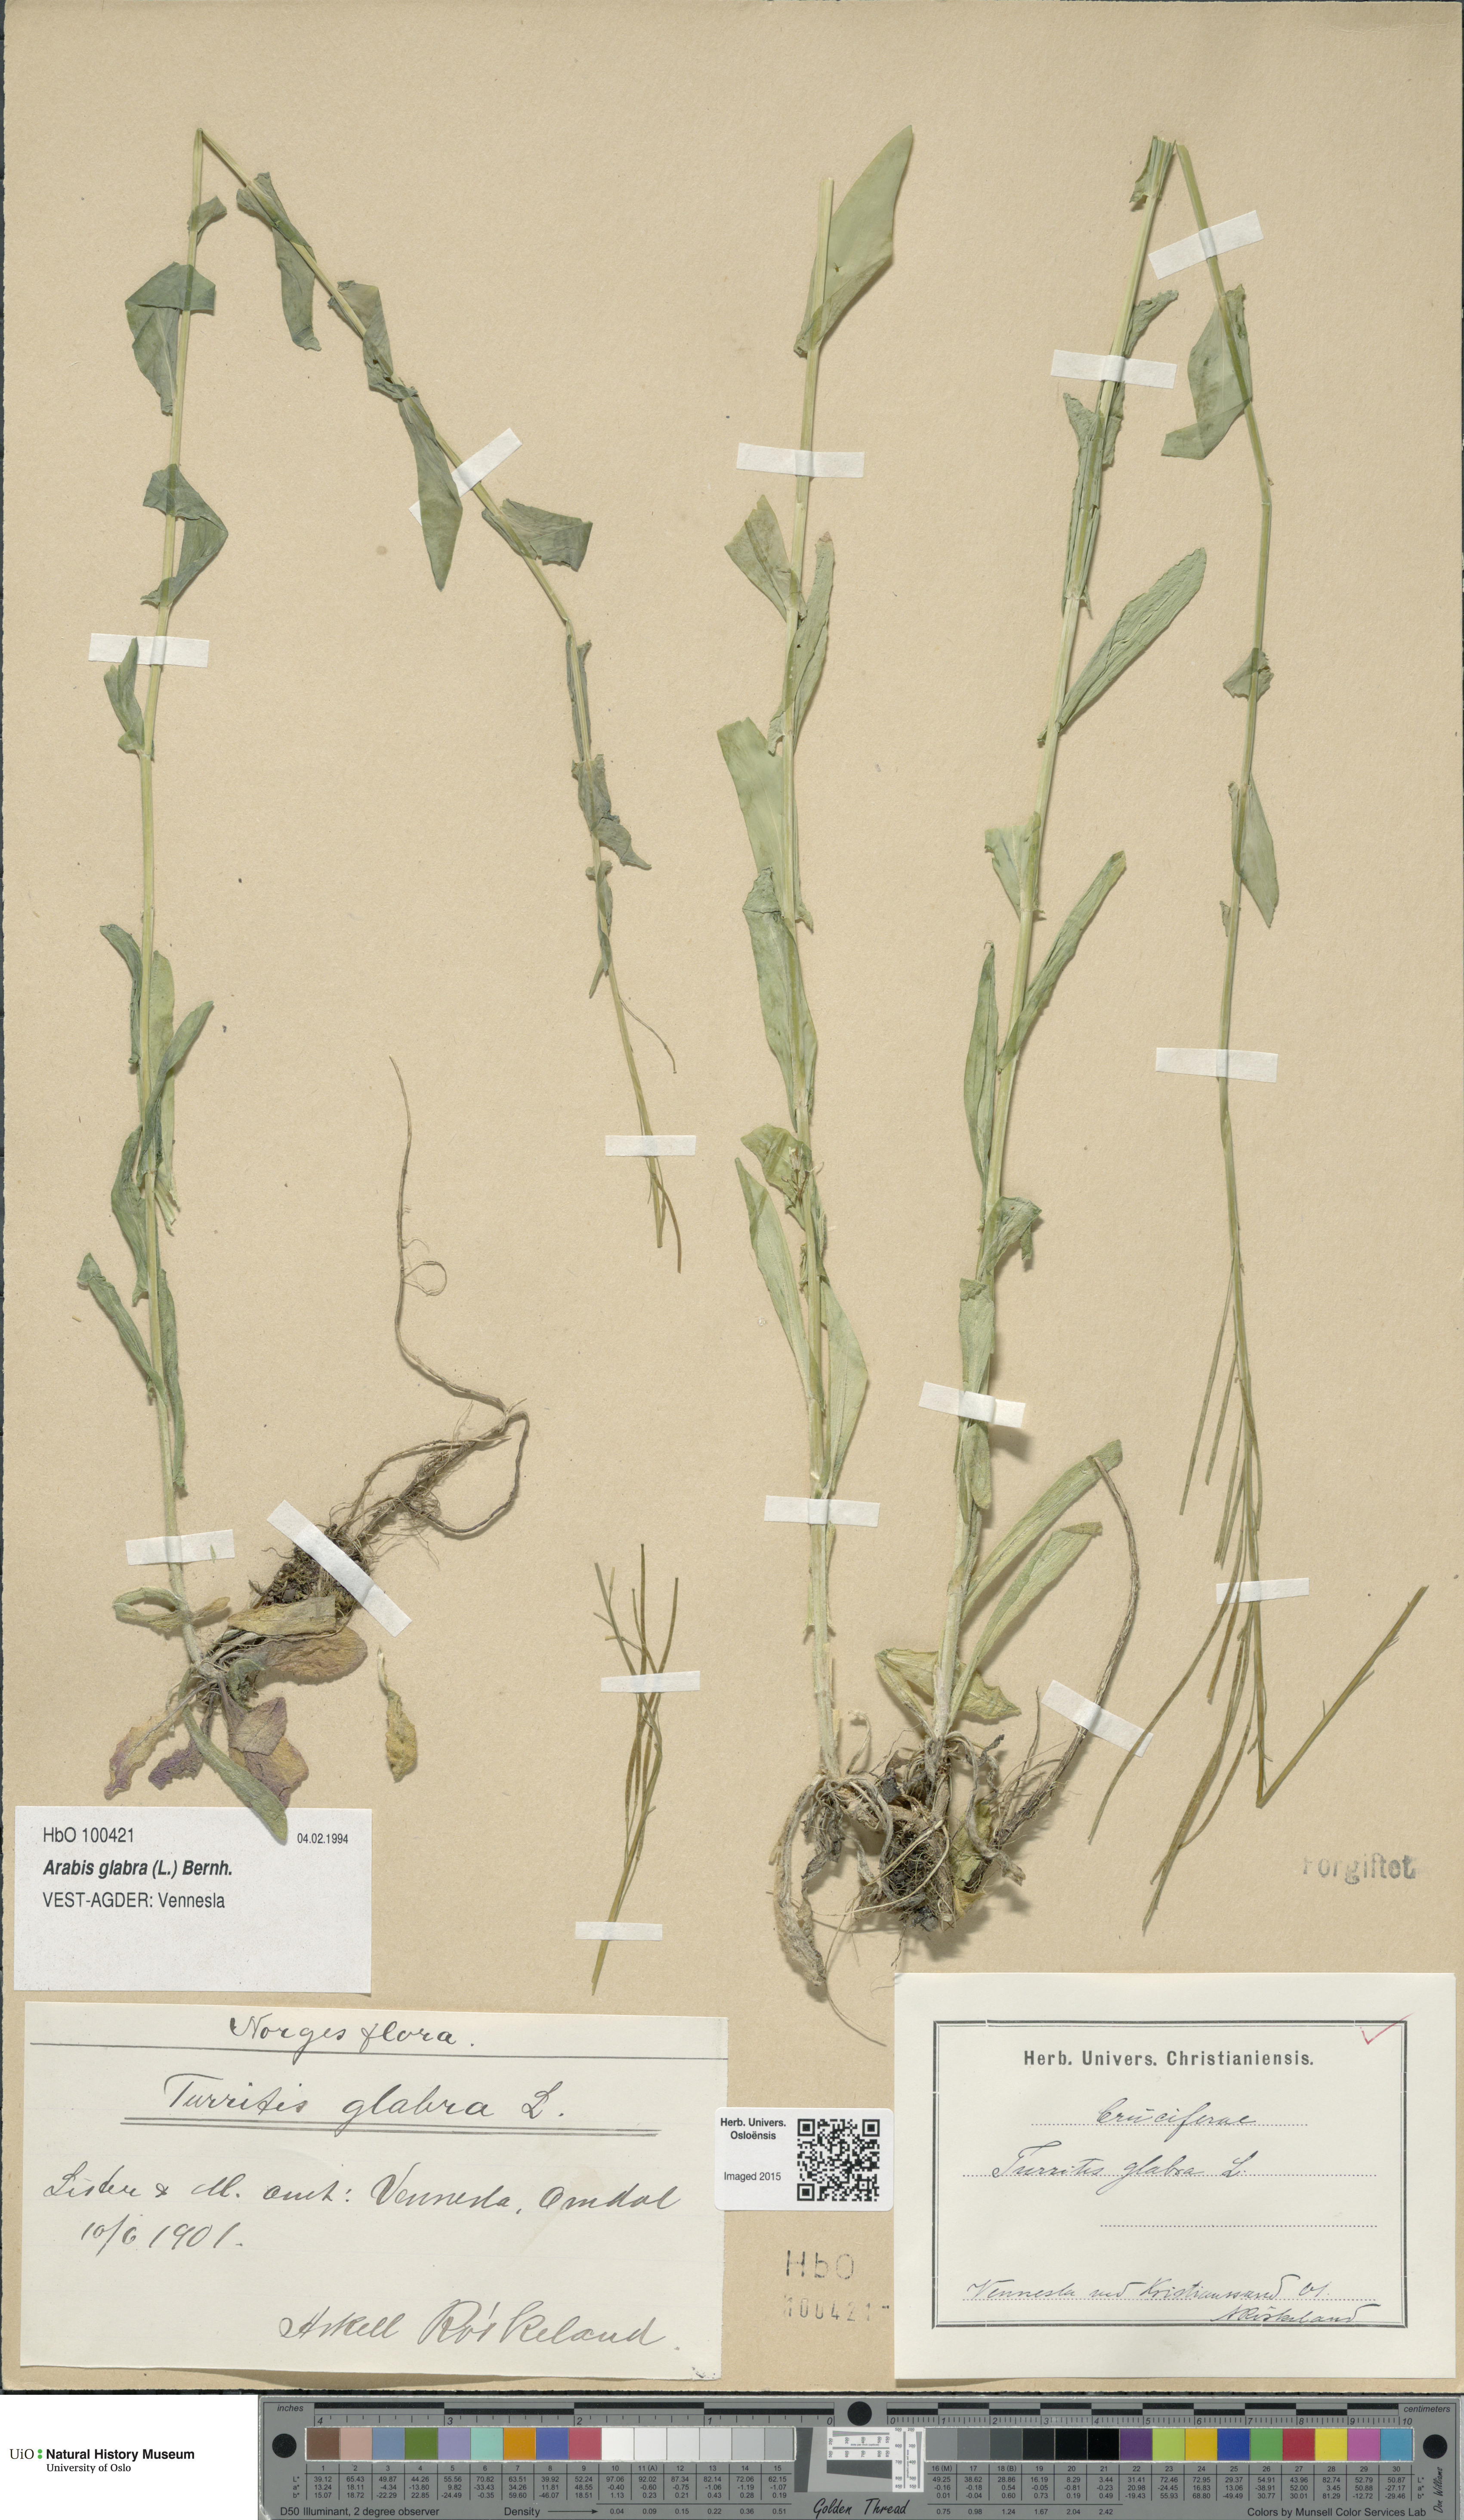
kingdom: Plantae
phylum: Tracheophyta
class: Magnoliopsida
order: Brassicales
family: Brassicaceae
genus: Turritis
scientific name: Turritis glabra
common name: Tower rockcress
